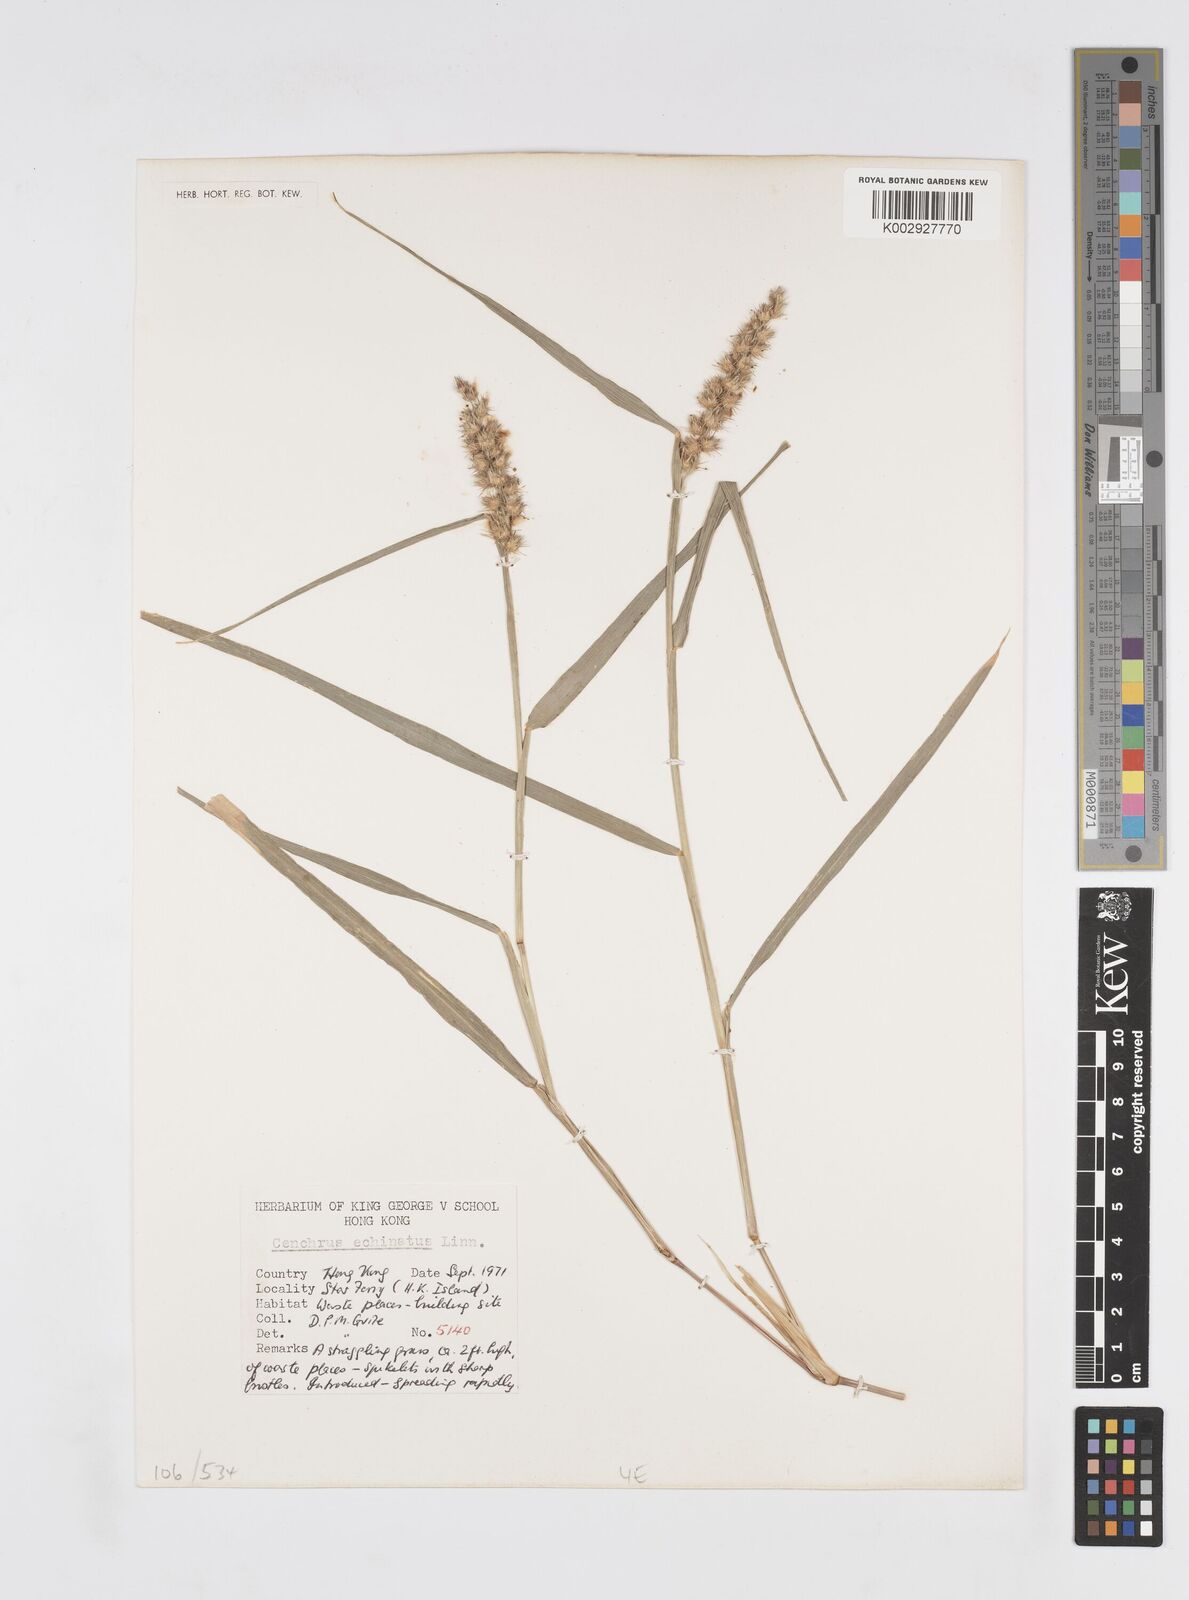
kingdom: Plantae
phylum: Tracheophyta
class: Liliopsida
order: Poales
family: Poaceae
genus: Cenchrus
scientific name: Cenchrus echinatus
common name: Southern sandbur
